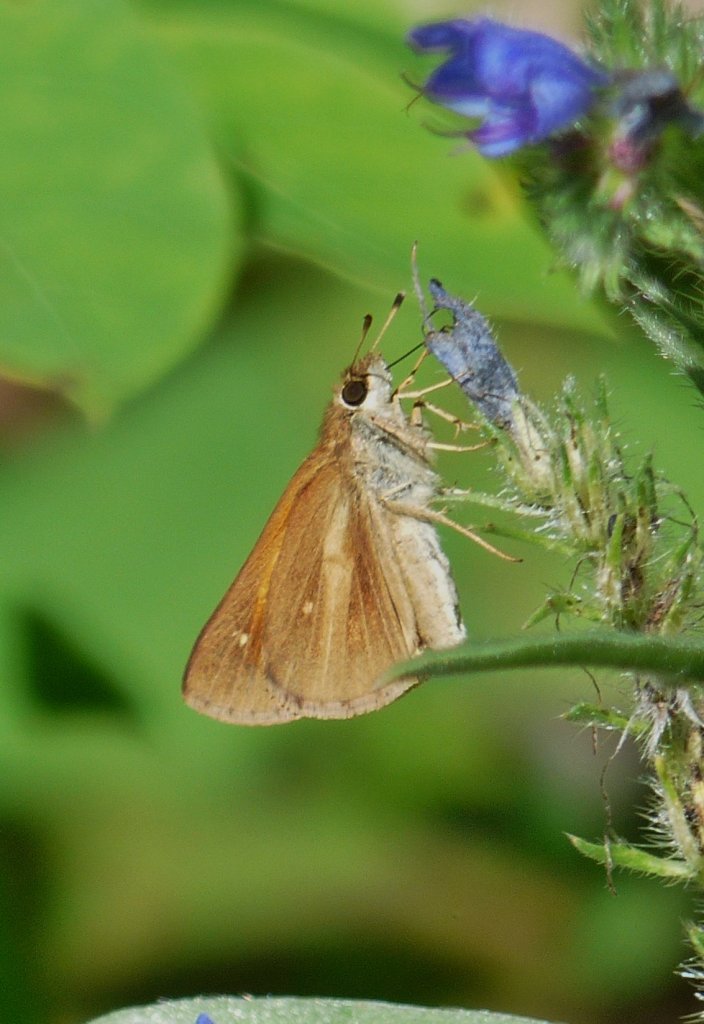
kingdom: Animalia
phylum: Arthropoda
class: Insecta
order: Lepidoptera
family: Hesperiidae
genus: Poanes
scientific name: Poanes viator
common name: Broad-winged Skipper
